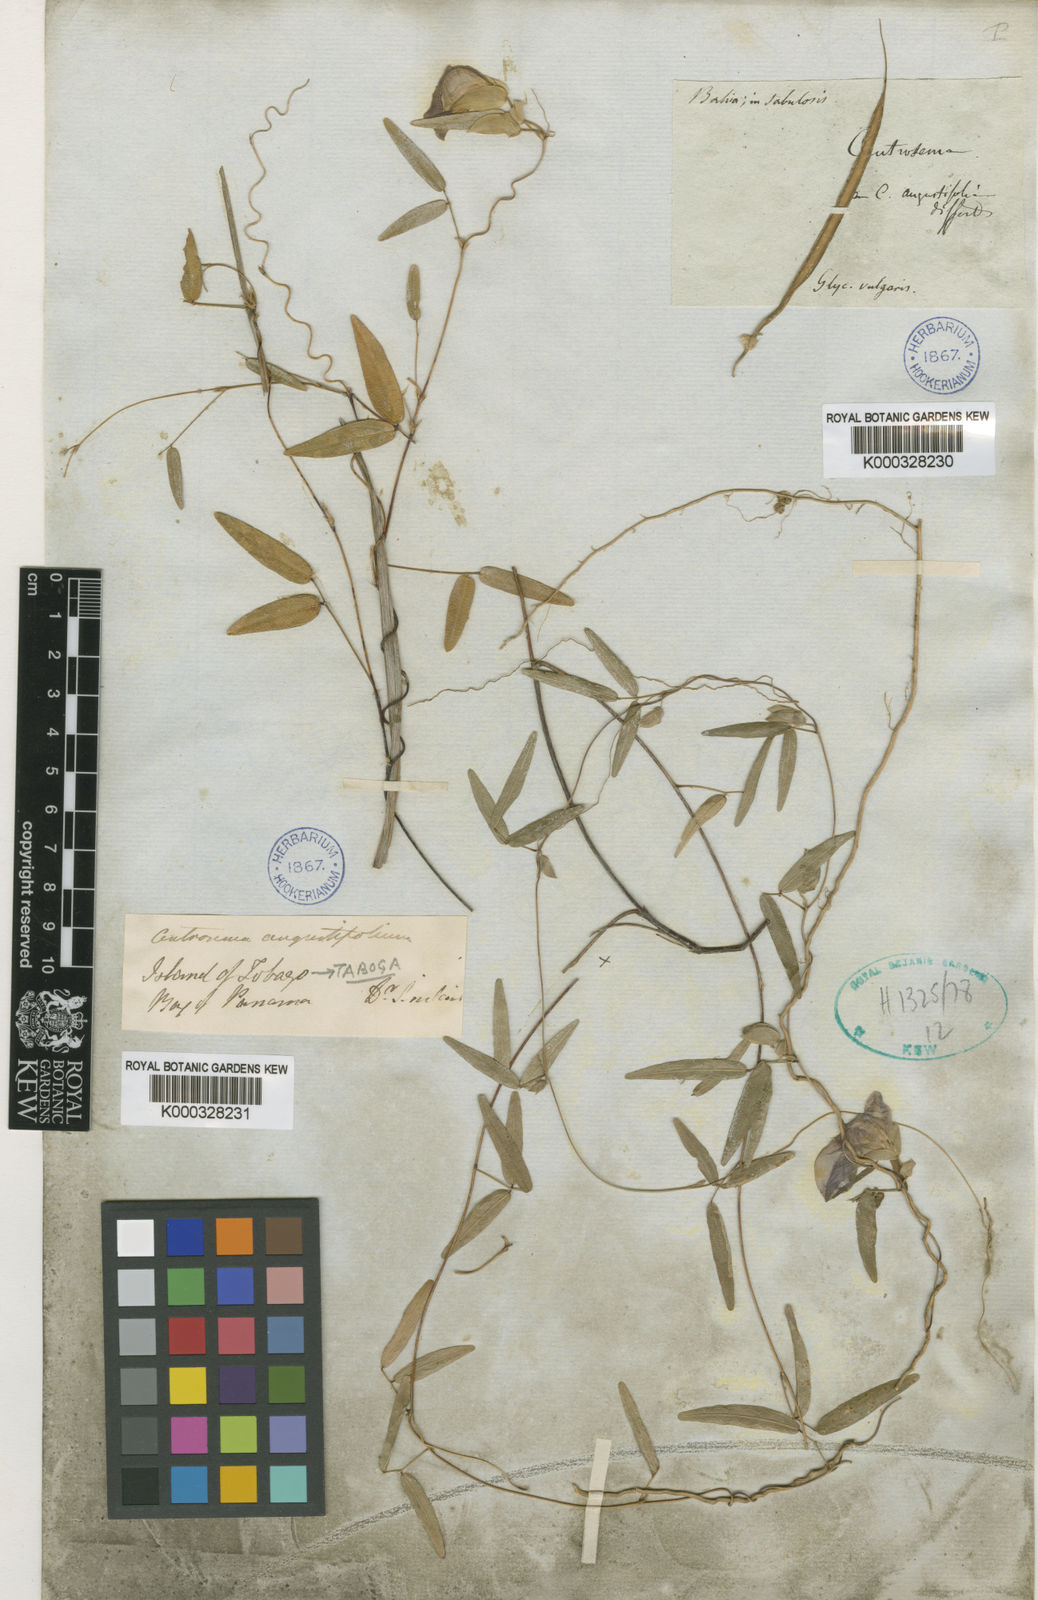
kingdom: Plantae
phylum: Tracheophyta
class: Magnoliopsida
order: Fabales
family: Fabaceae
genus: Centrosema
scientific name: Centrosema angustifolium
